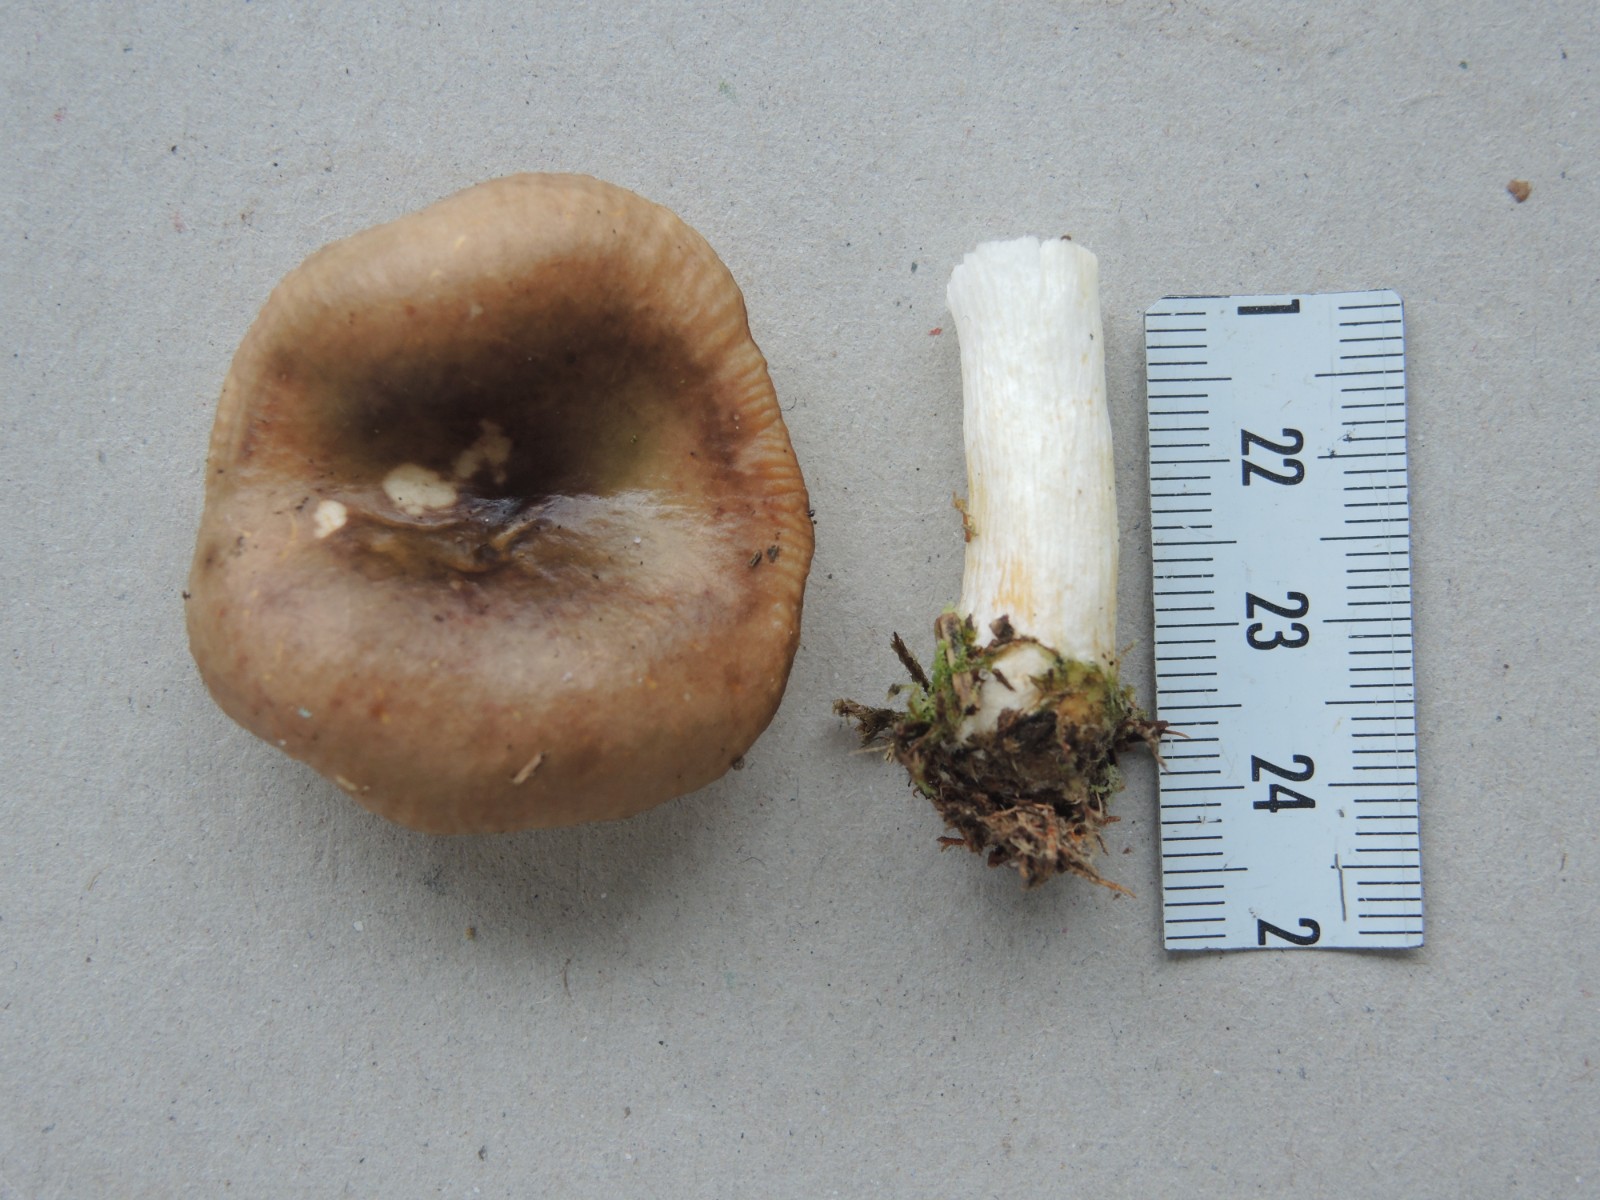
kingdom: Fungi
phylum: Basidiomycota
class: Agaricomycetes
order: Russulales
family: Russulaceae
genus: Russula
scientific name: Russula puellaris
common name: gulstokket skørhat
